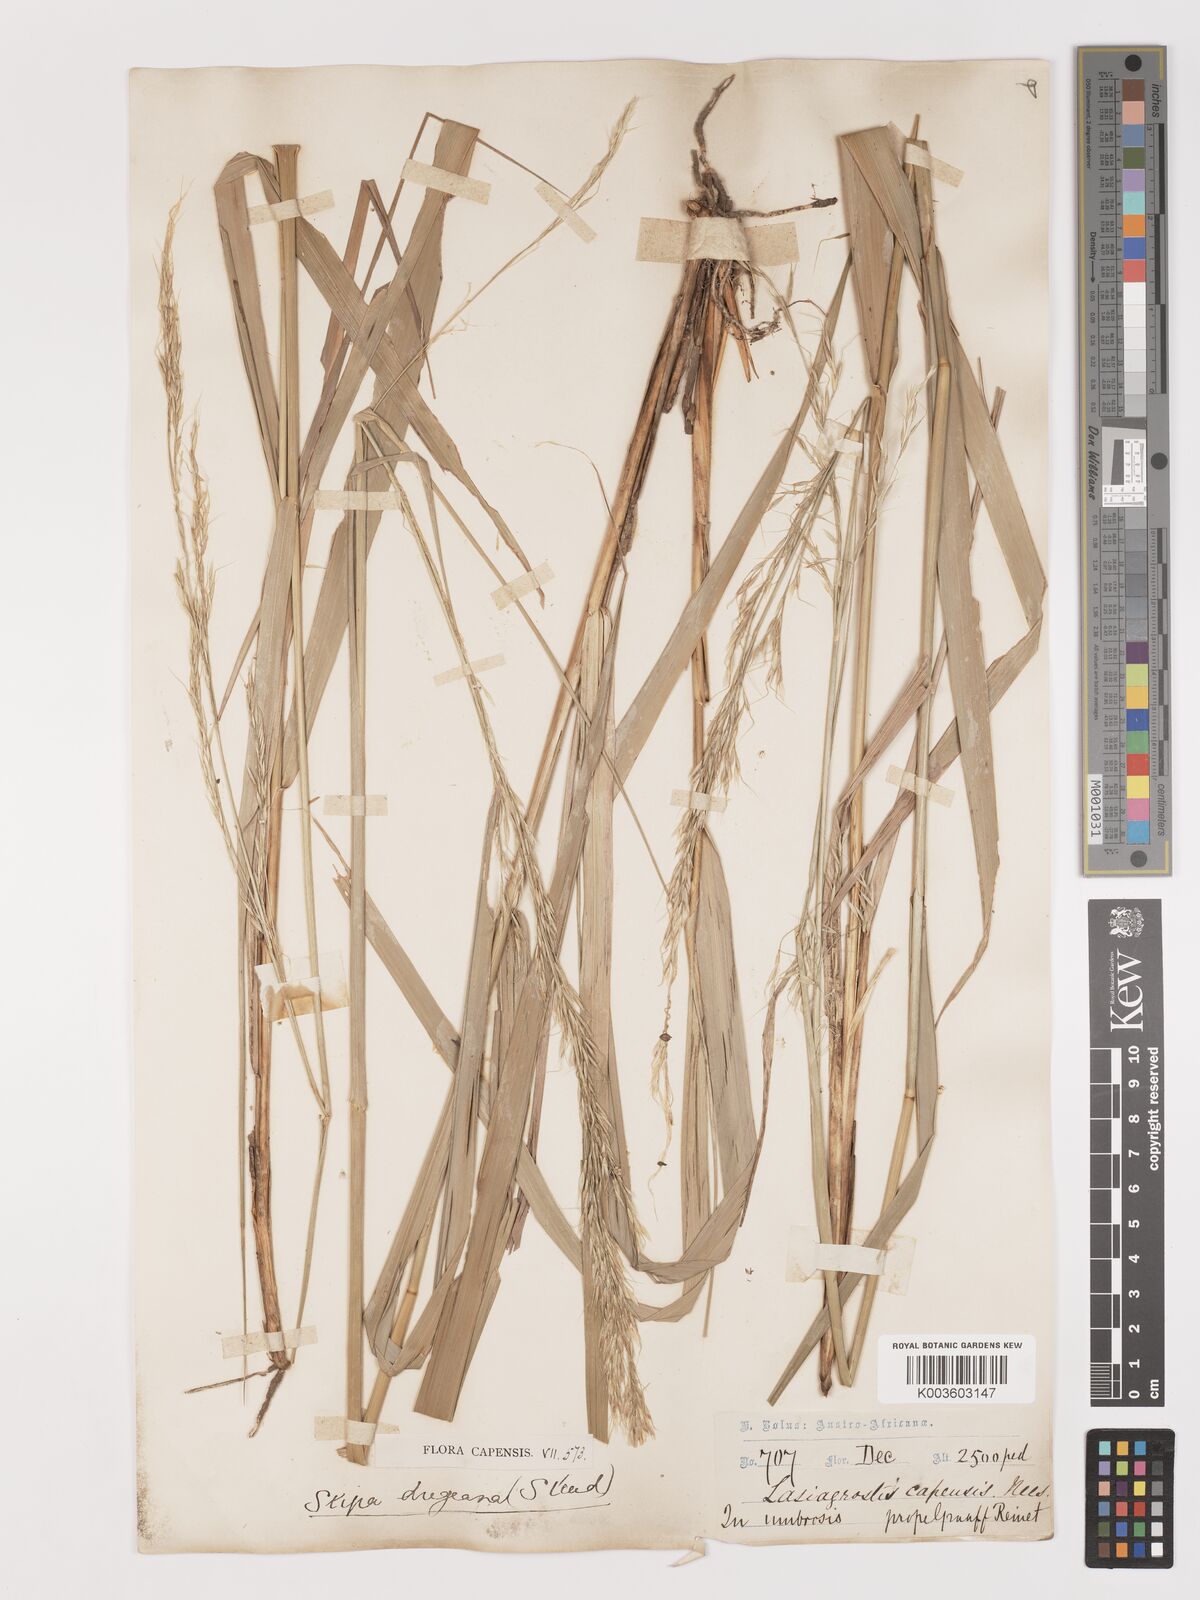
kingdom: Plantae
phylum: Tracheophyta
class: Liliopsida
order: Poales
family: Poaceae
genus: Stipa
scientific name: Stipa dregeana
